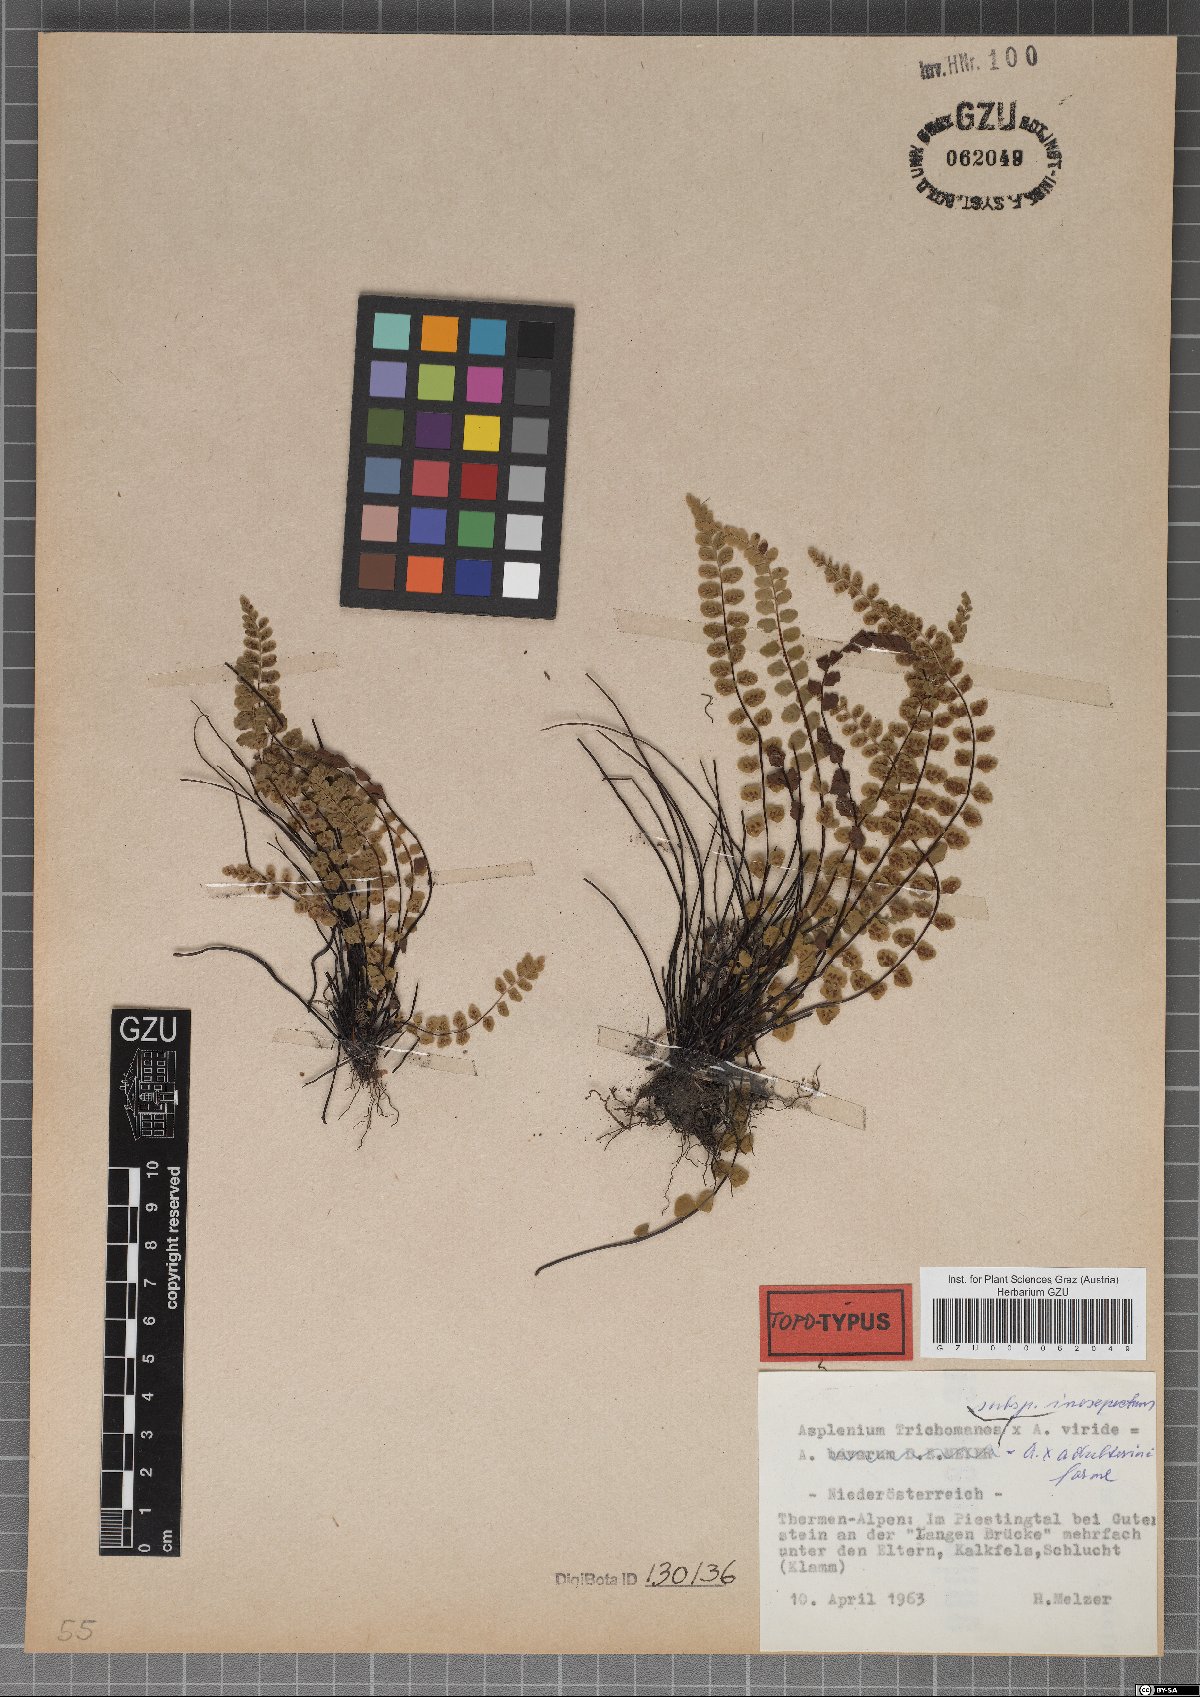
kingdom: Plantae
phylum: Tracheophyta
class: Polypodiopsida
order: Polypodiales
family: Aspleniaceae
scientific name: Aspleniaceae
